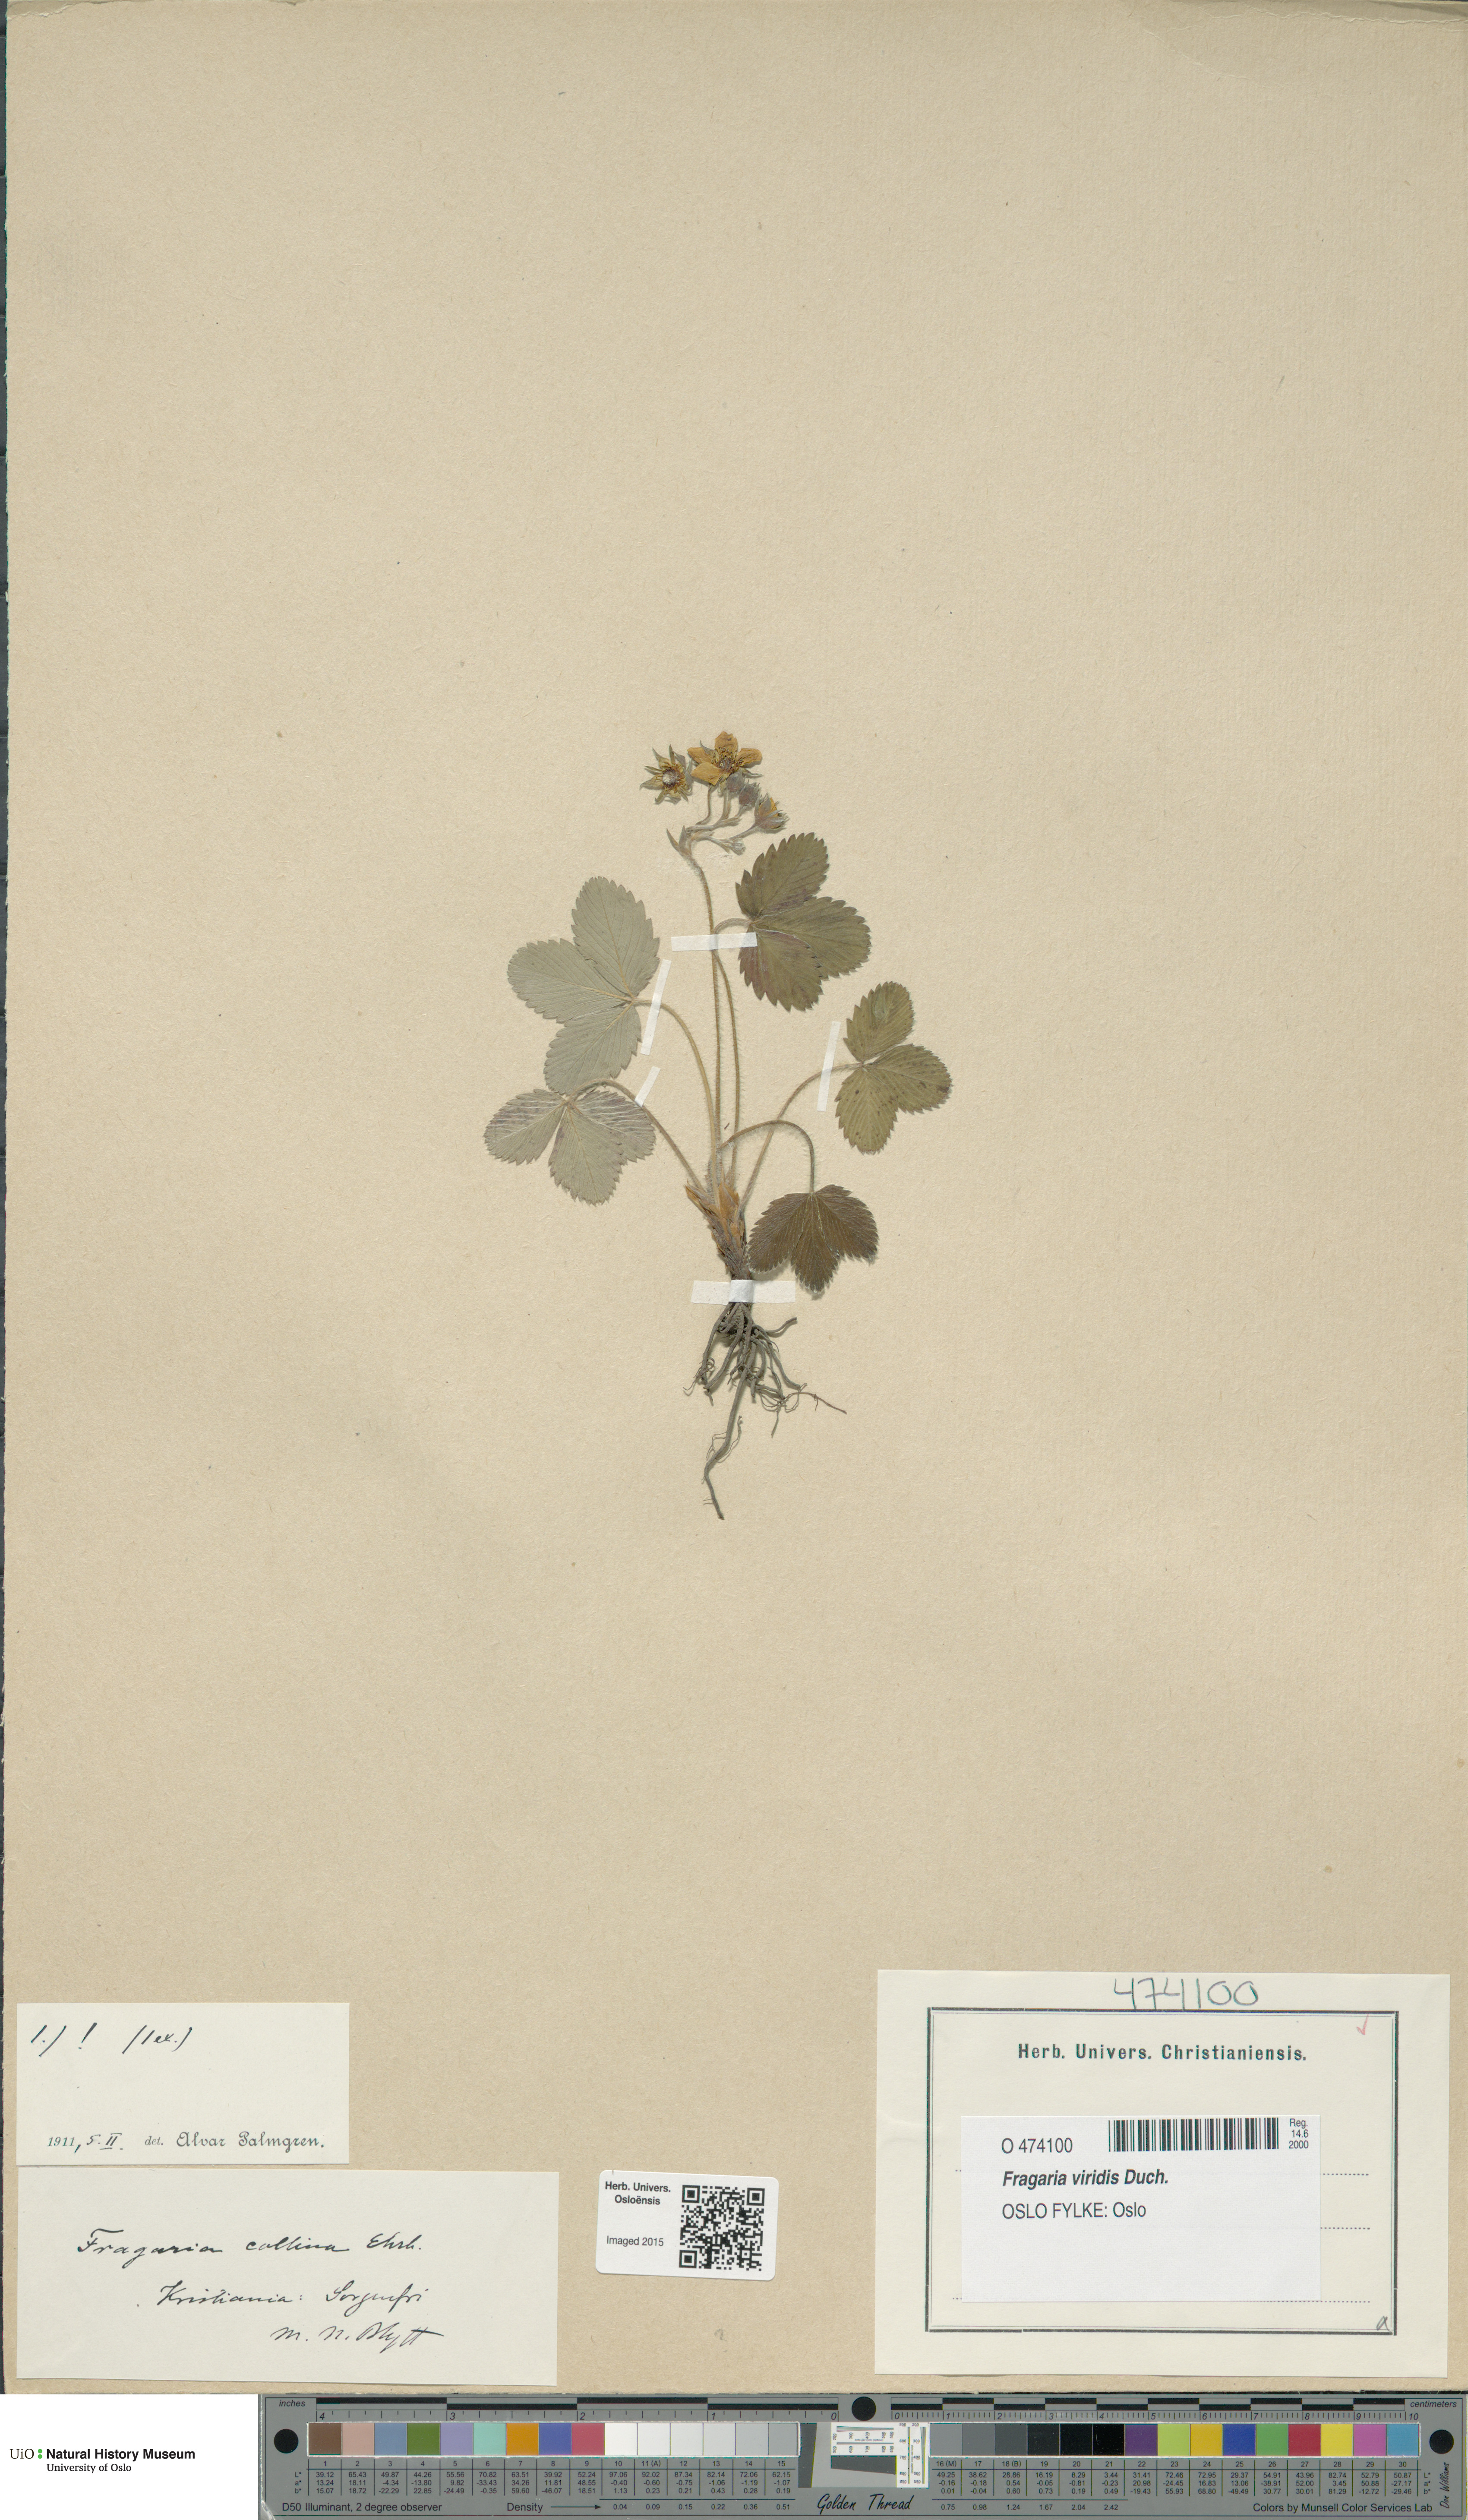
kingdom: Plantae
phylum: Tracheophyta
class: Magnoliopsida
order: Rosales
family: Rosaceae
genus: Fragaria
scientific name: Fragaria viridis
